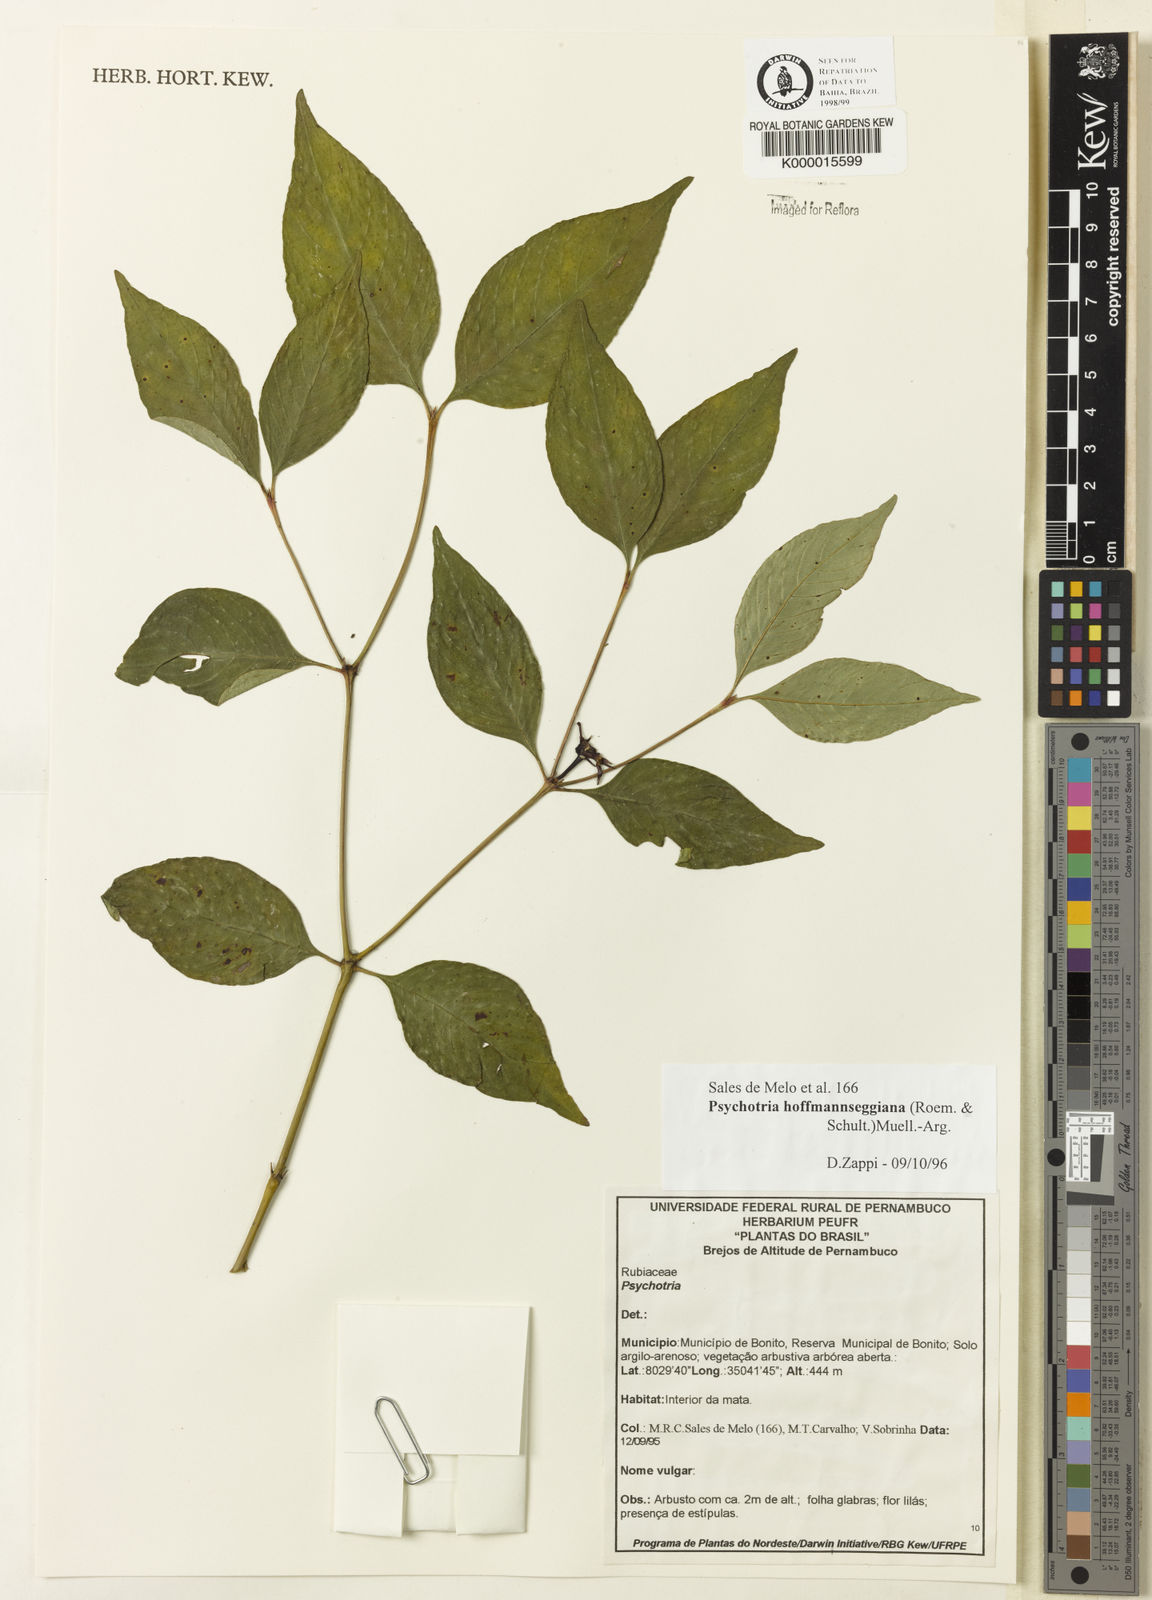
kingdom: Plantae
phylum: Tracheophyta
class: Magnoliopsida
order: Gentianales
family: Rubiaceae
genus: Psychotria
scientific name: Psychotria
